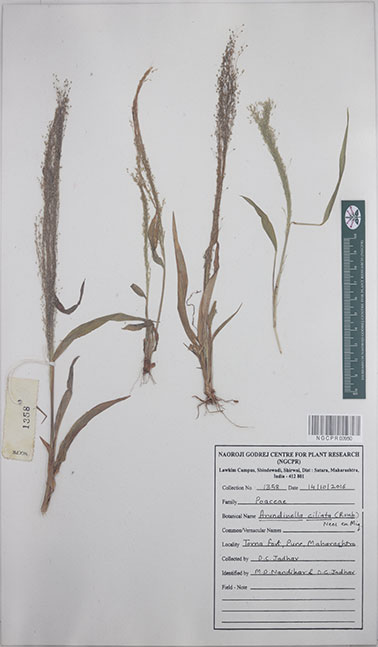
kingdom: Plantae
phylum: Tracheophyta
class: Liliopsida
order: Poales
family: Poaceae
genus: Arundinella
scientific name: Arundinella ciliata
